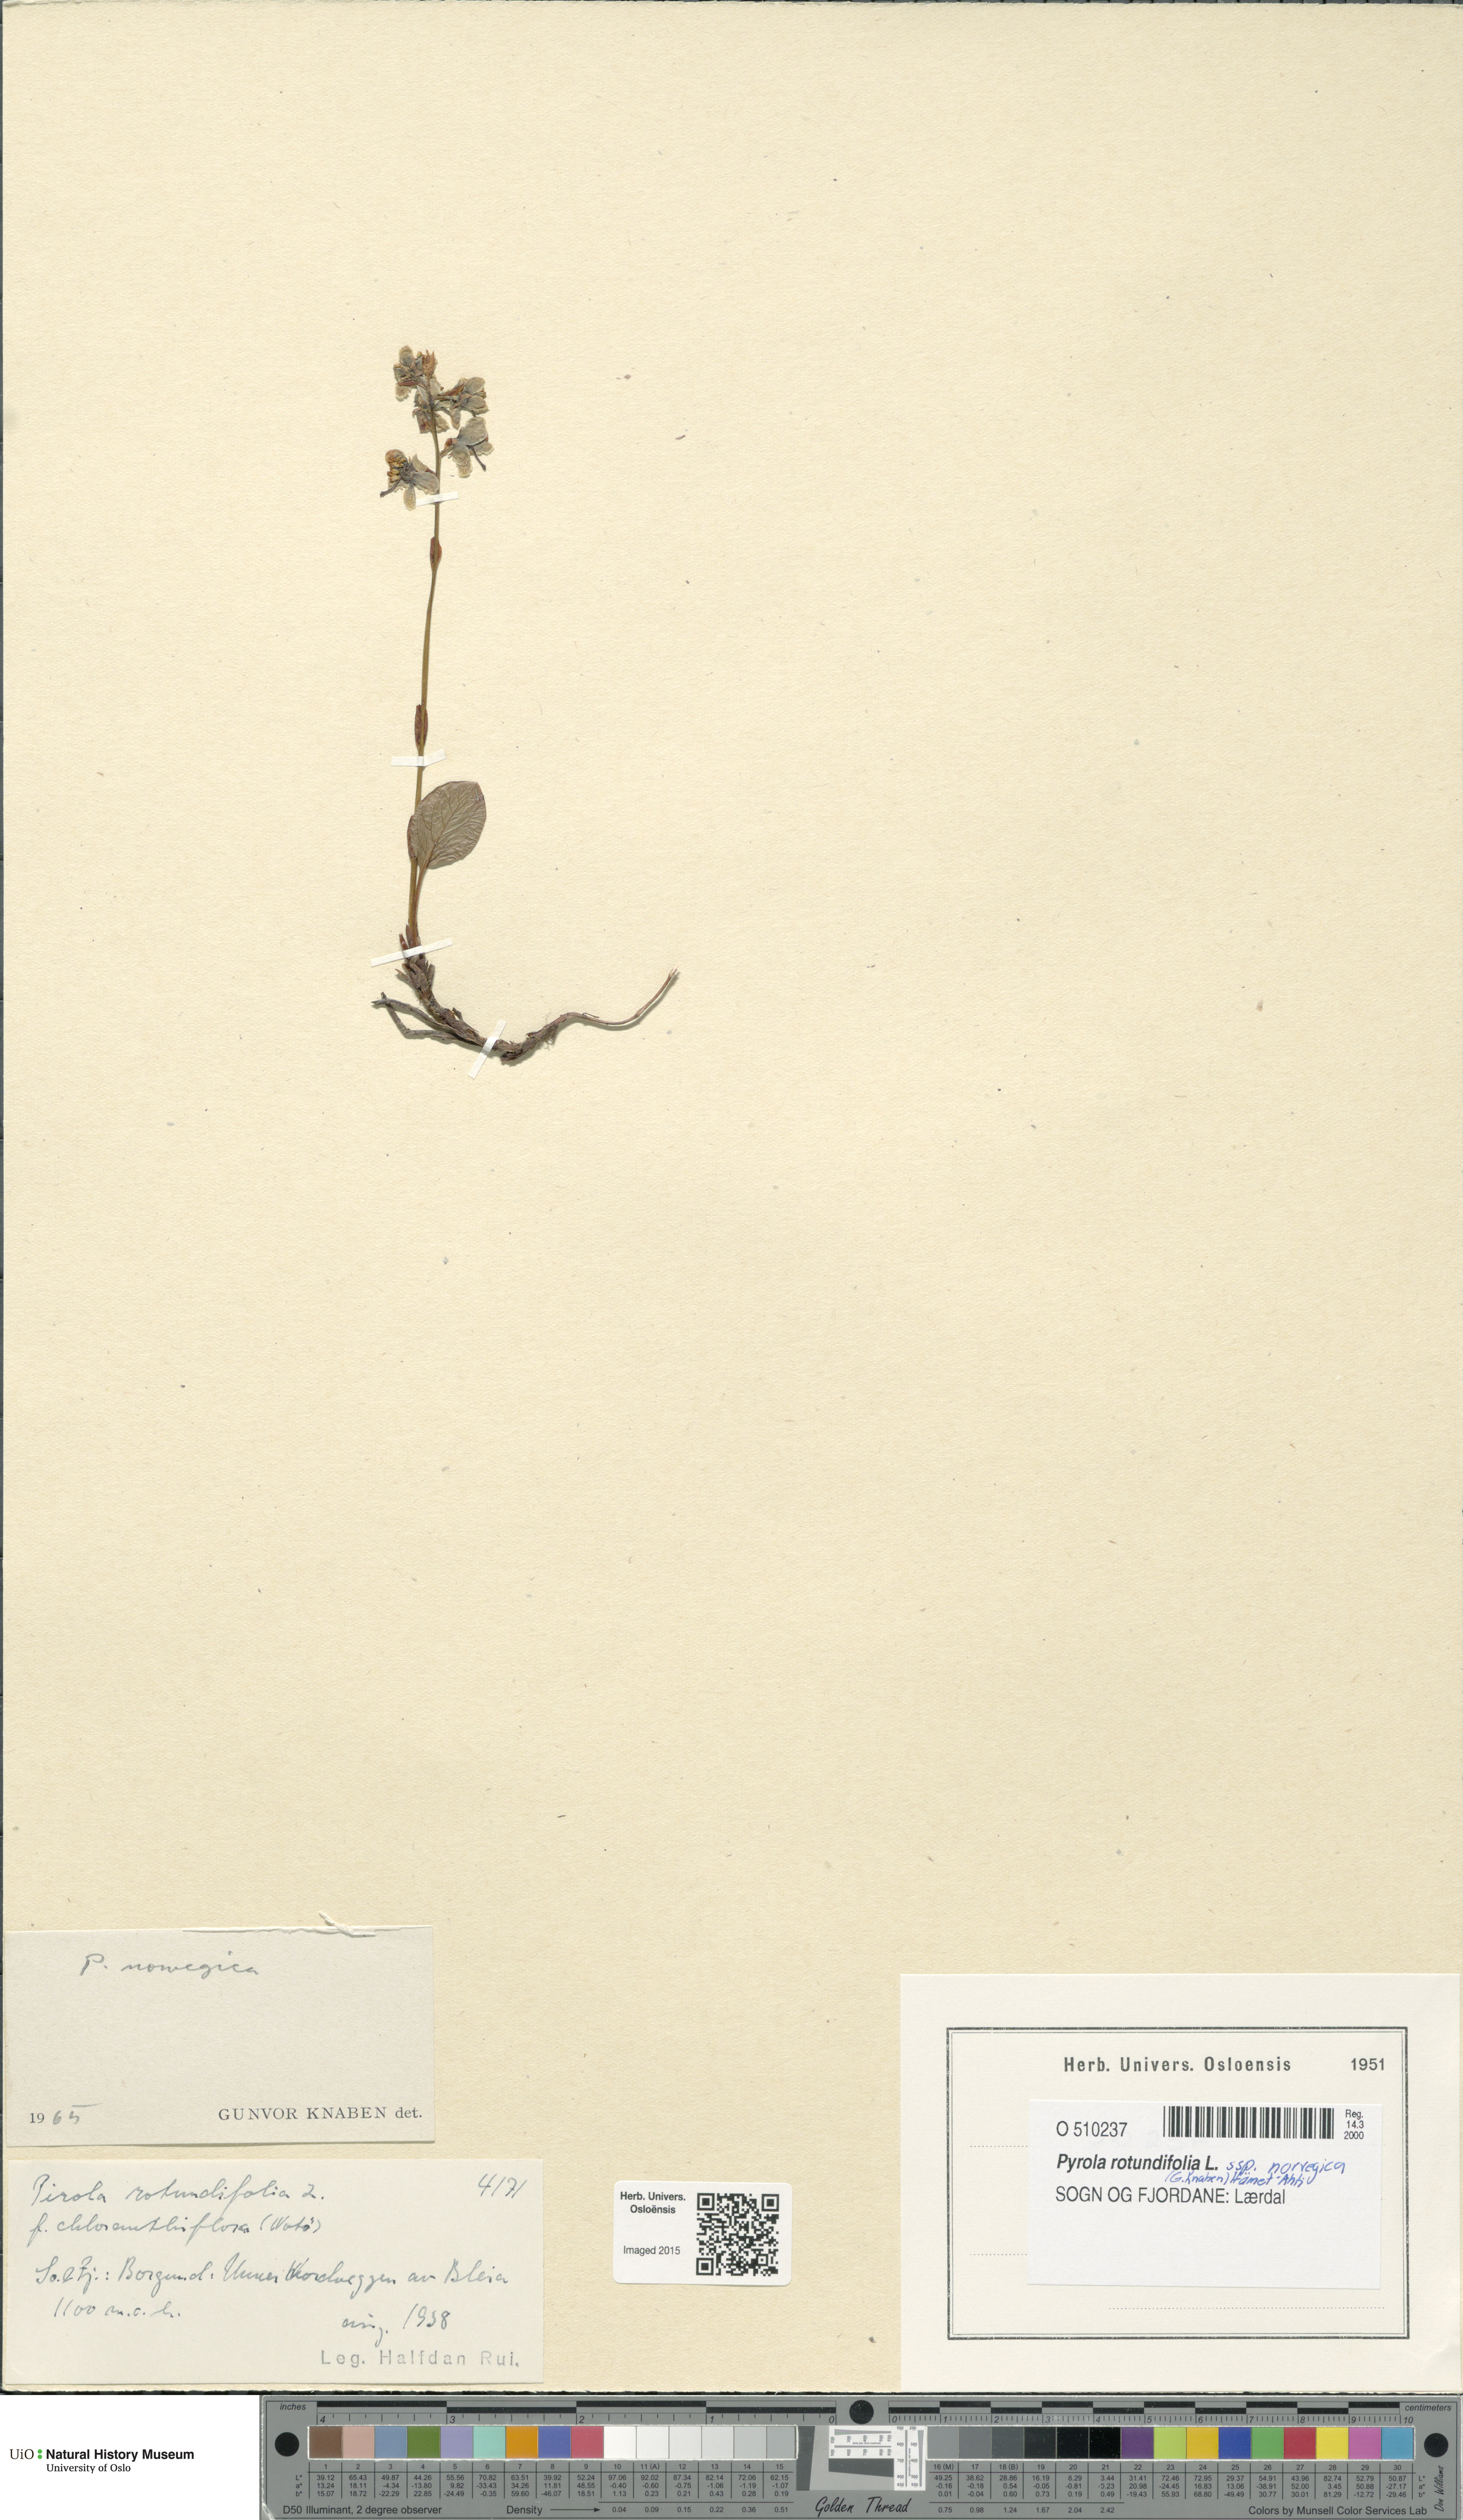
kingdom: Plantae
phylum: Tracheophyta
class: Magnoliopsida
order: Ericales
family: Ericaceae
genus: Pyrola
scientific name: Pyrola rotundifolia
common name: Round-leaved wintergreen
